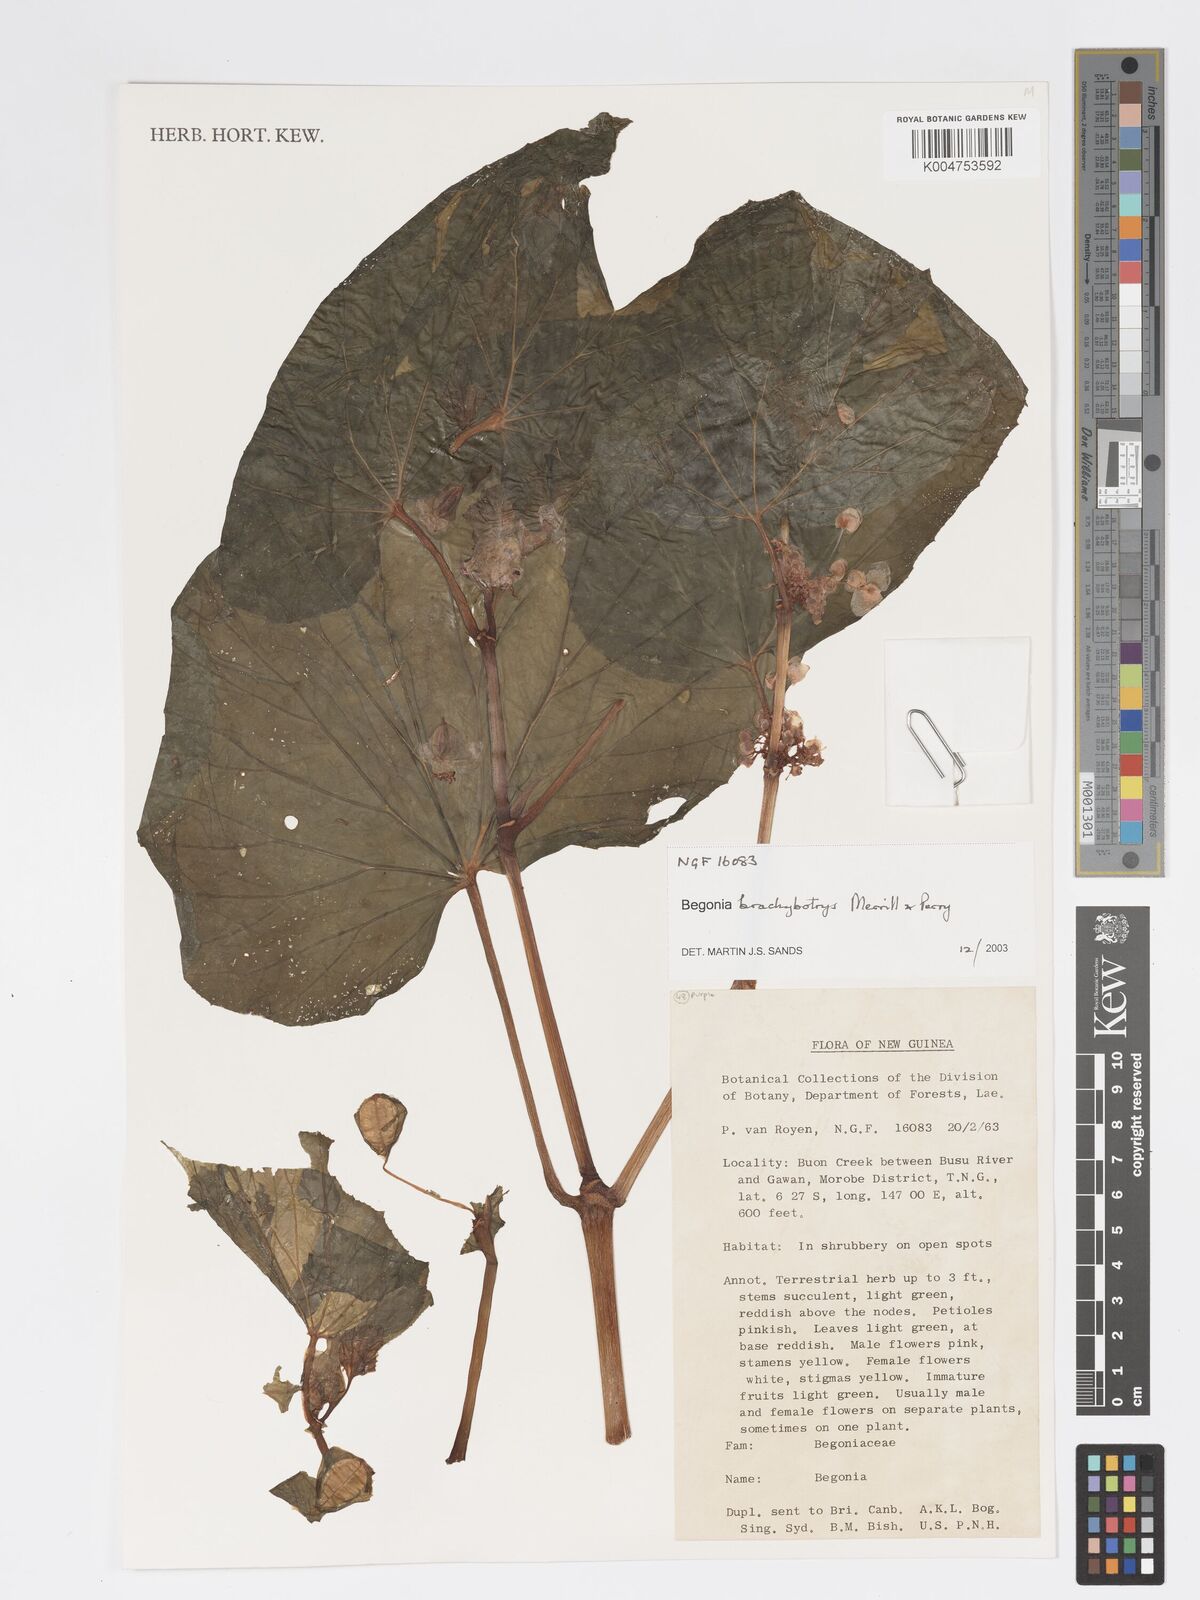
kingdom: Plantae
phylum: Tracheophyta
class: Magnoliopsida
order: Cucurbitales
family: Begoniaceae
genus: Begonia
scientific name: Begonia brachybotrys
